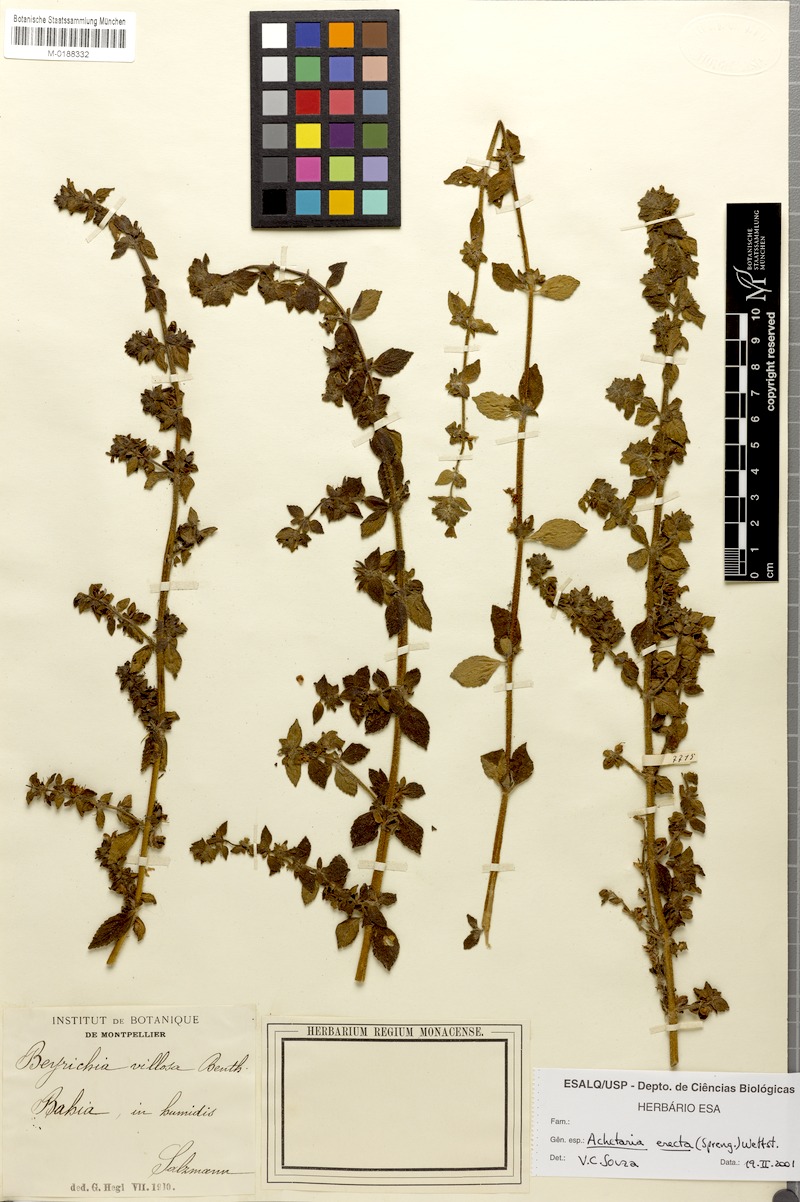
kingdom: Plantae
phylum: Tracheophyta
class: Magnoliopsida
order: Lamiales
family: Plantaginaceae
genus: Matourea
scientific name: Matourea erecta
